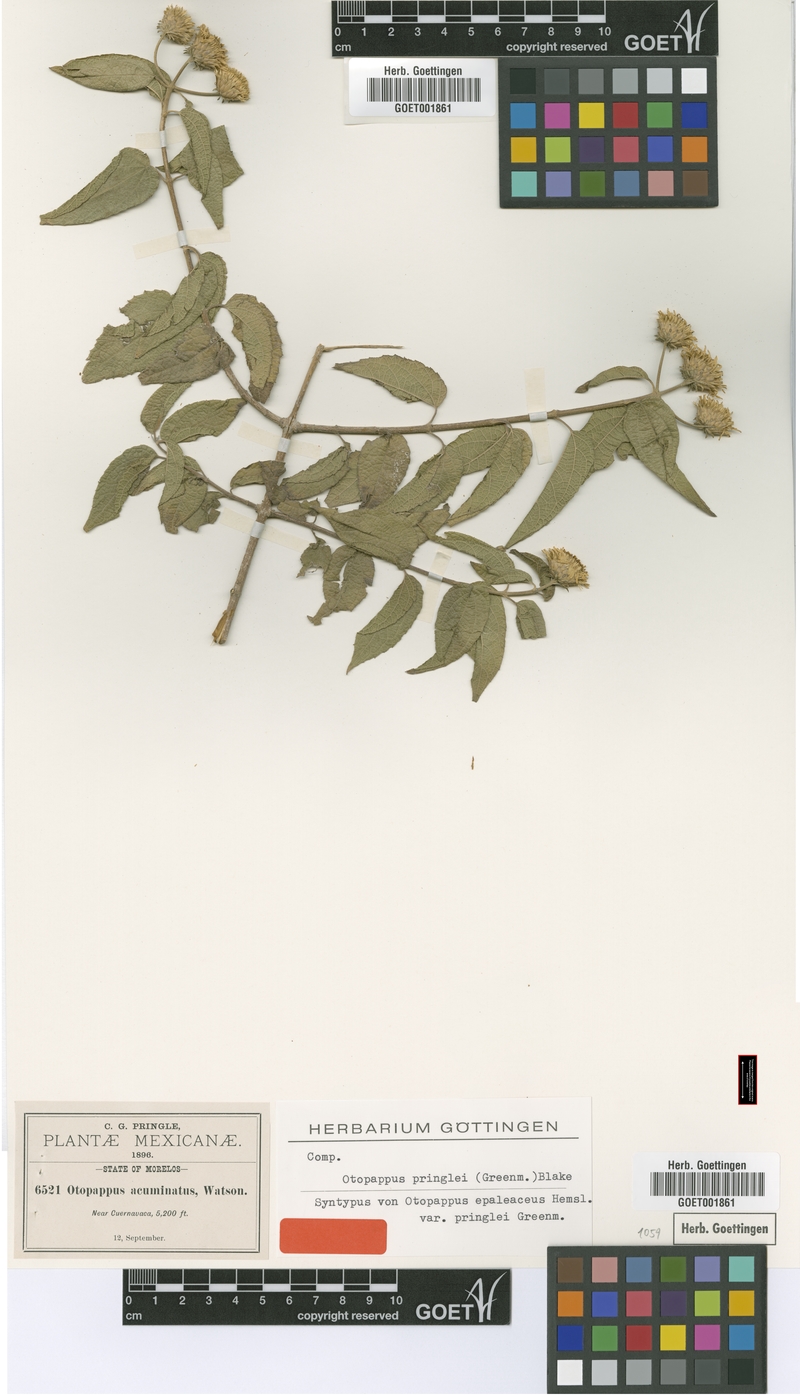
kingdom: Plantae
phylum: Tracheophyta
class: Magnoliopsida
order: Asterales
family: Asteraceae
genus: Otopappus
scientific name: Otopappus imbricatus
